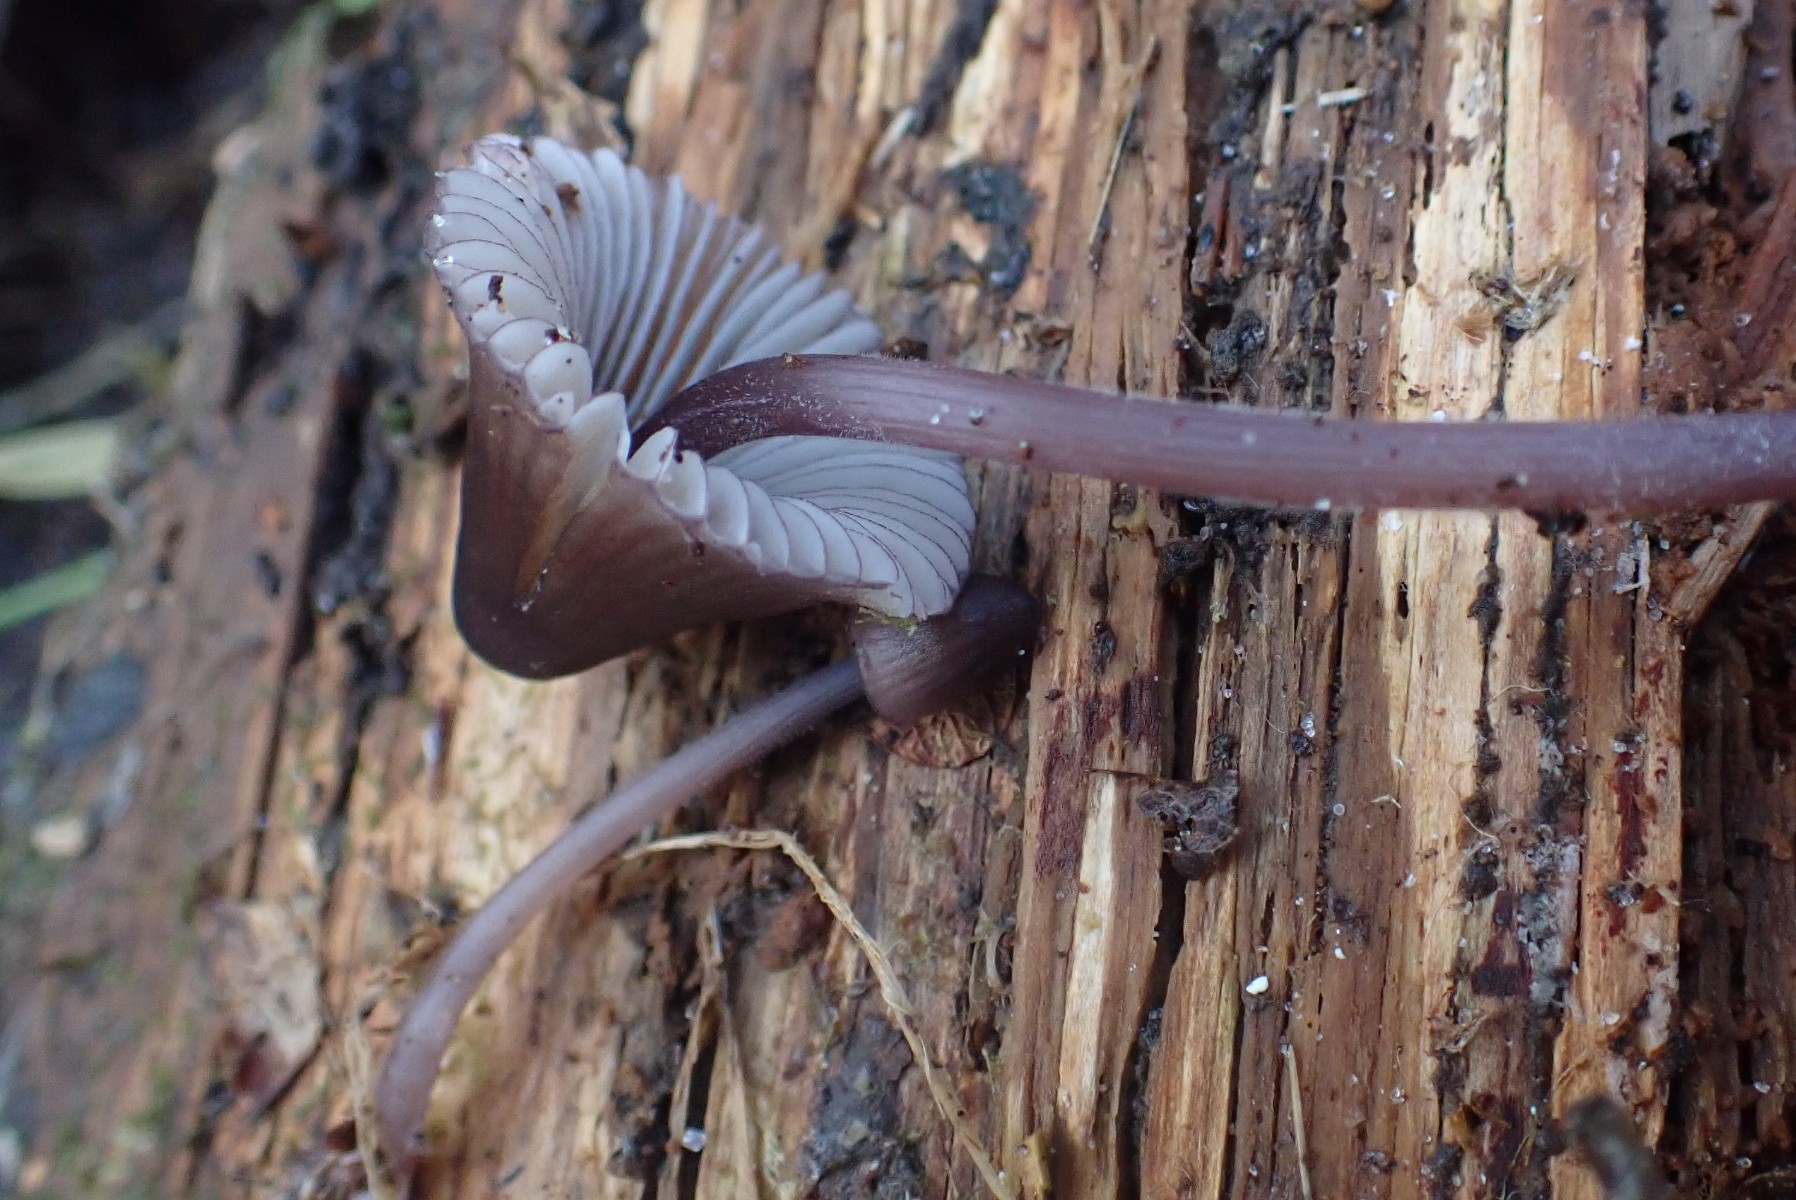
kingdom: Fungi
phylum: Basidiomycota
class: Agaricomycetes
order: Agaricales
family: Mycenaceae
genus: Mycena
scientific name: Mycena purpureofusca
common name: purpur-huesvamp
